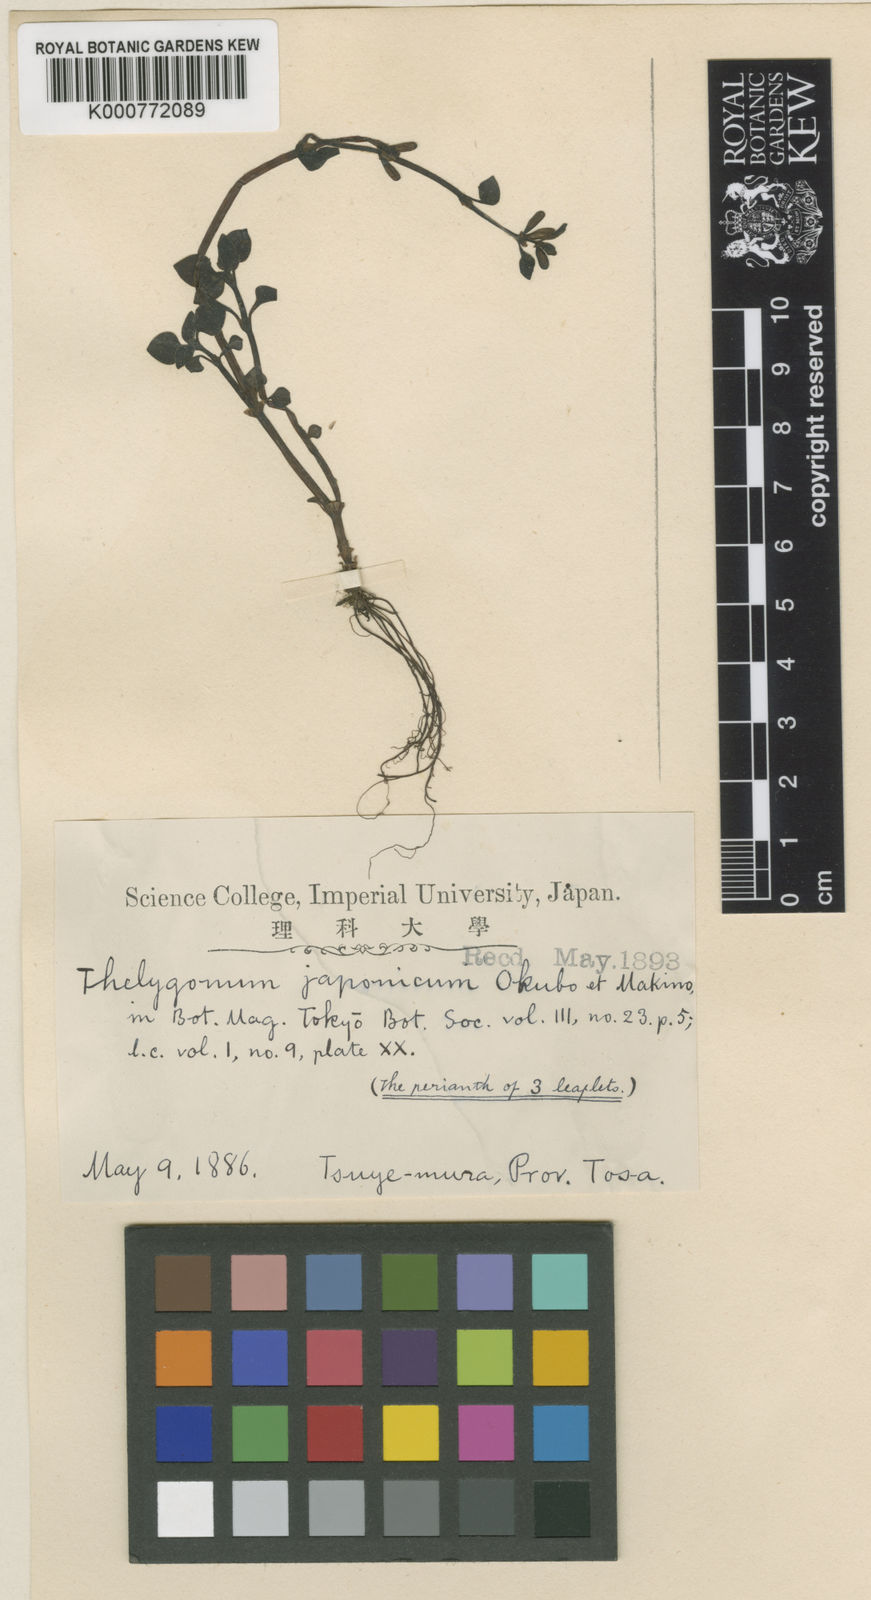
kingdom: Plantae
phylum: Tracheophyta
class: Magnoliopsida
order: Gentianales
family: Rubiaceae
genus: Theligonum
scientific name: Theligonum
